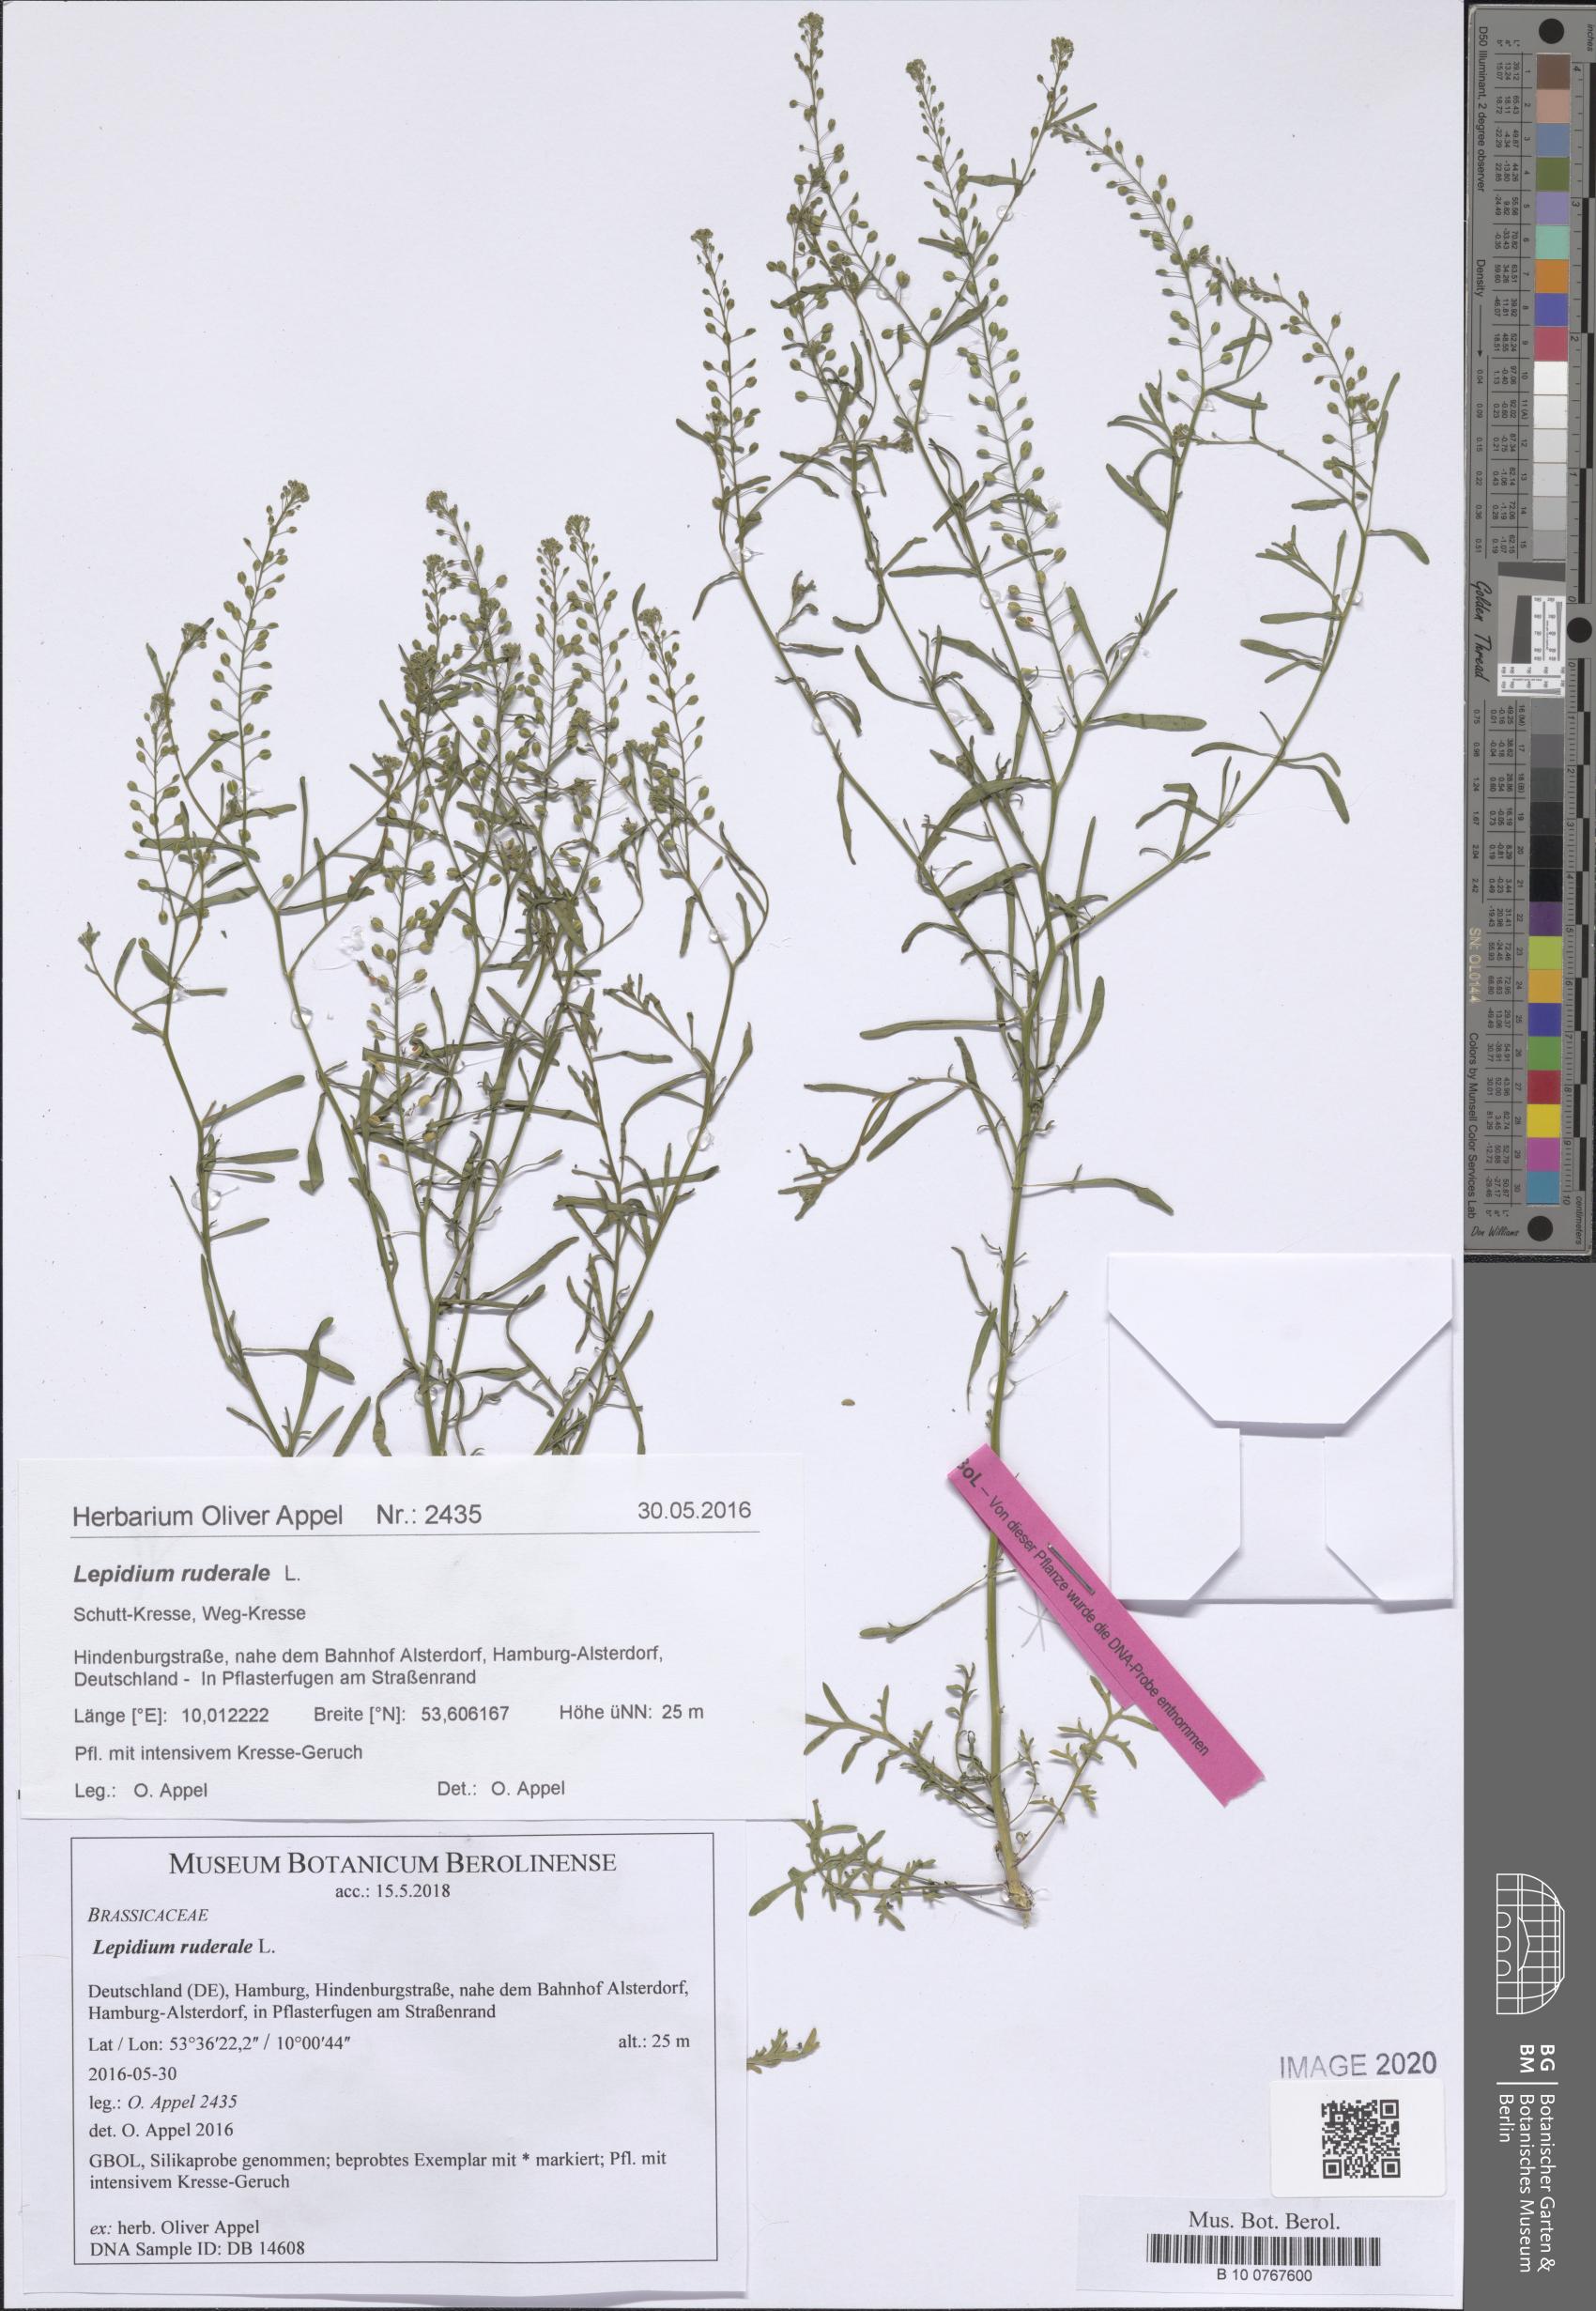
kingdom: Plantae
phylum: Tracheophyta
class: Magnoliopsida
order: Brassicales
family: Brassicaceae
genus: Lepidium
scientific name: Lepidium ruderale
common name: Narrow-leaved pepperwort
